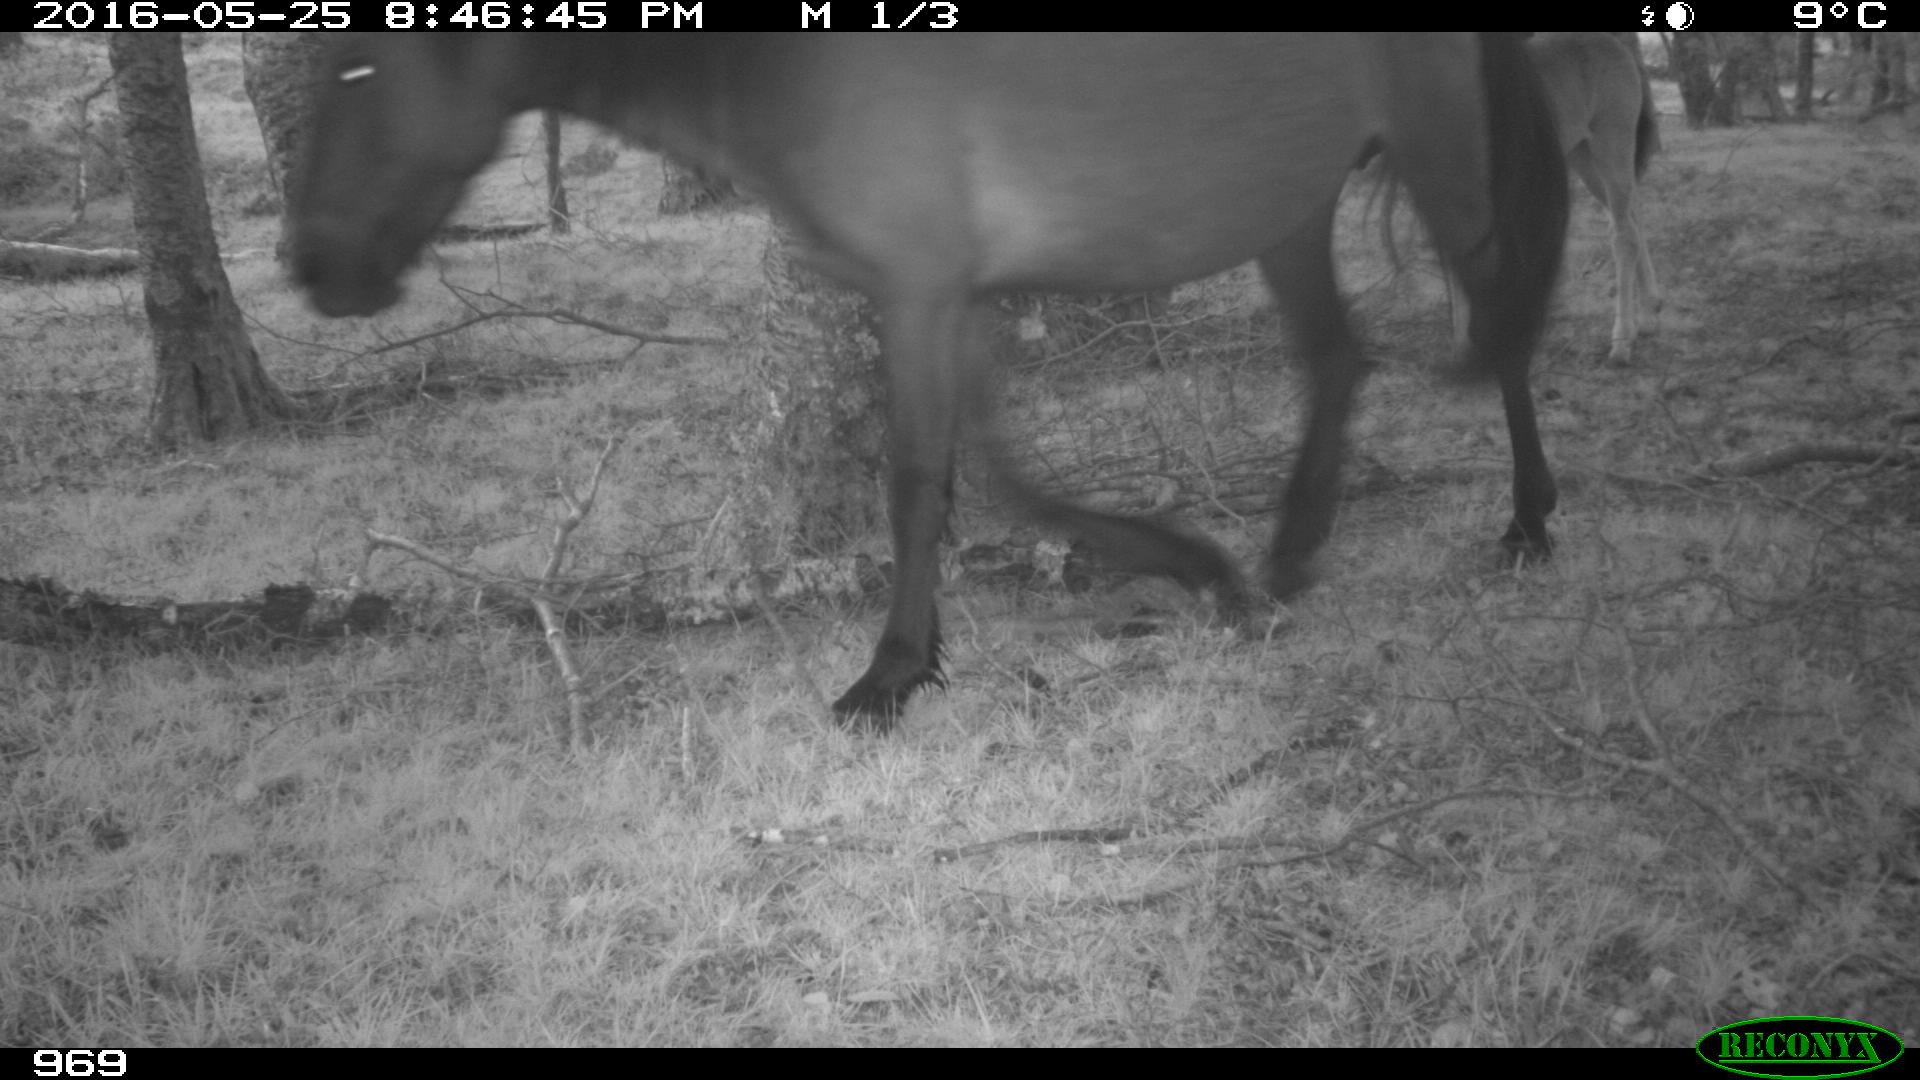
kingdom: Animalia
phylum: Chordata
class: Mammalia
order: Perissodactyla
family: Equidae
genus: Equus
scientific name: Equus caballus
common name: Horse
